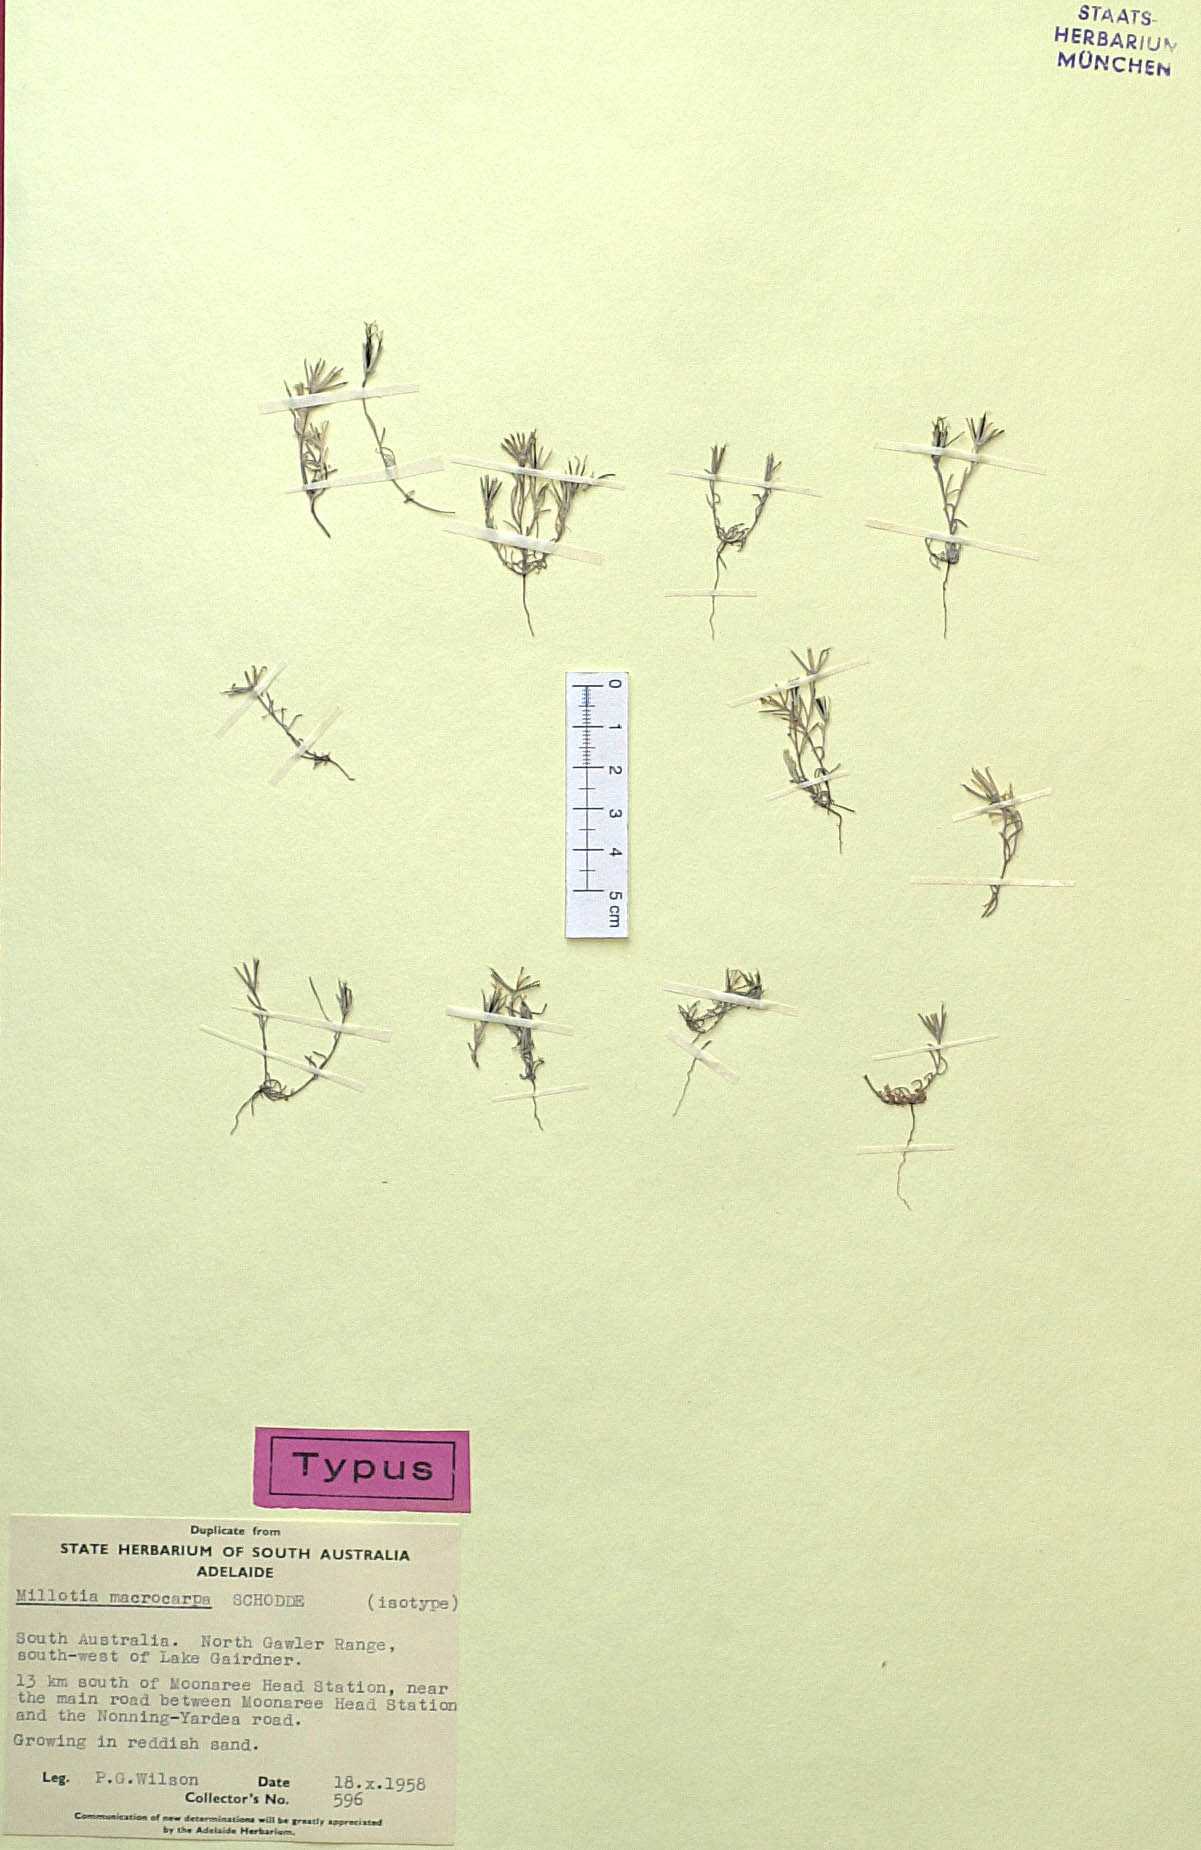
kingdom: Plantae
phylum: Tracheophyta
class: Magnoliopsida
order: Asterales
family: Asteraceae
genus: Millotia
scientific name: Millotia macrocarpa
